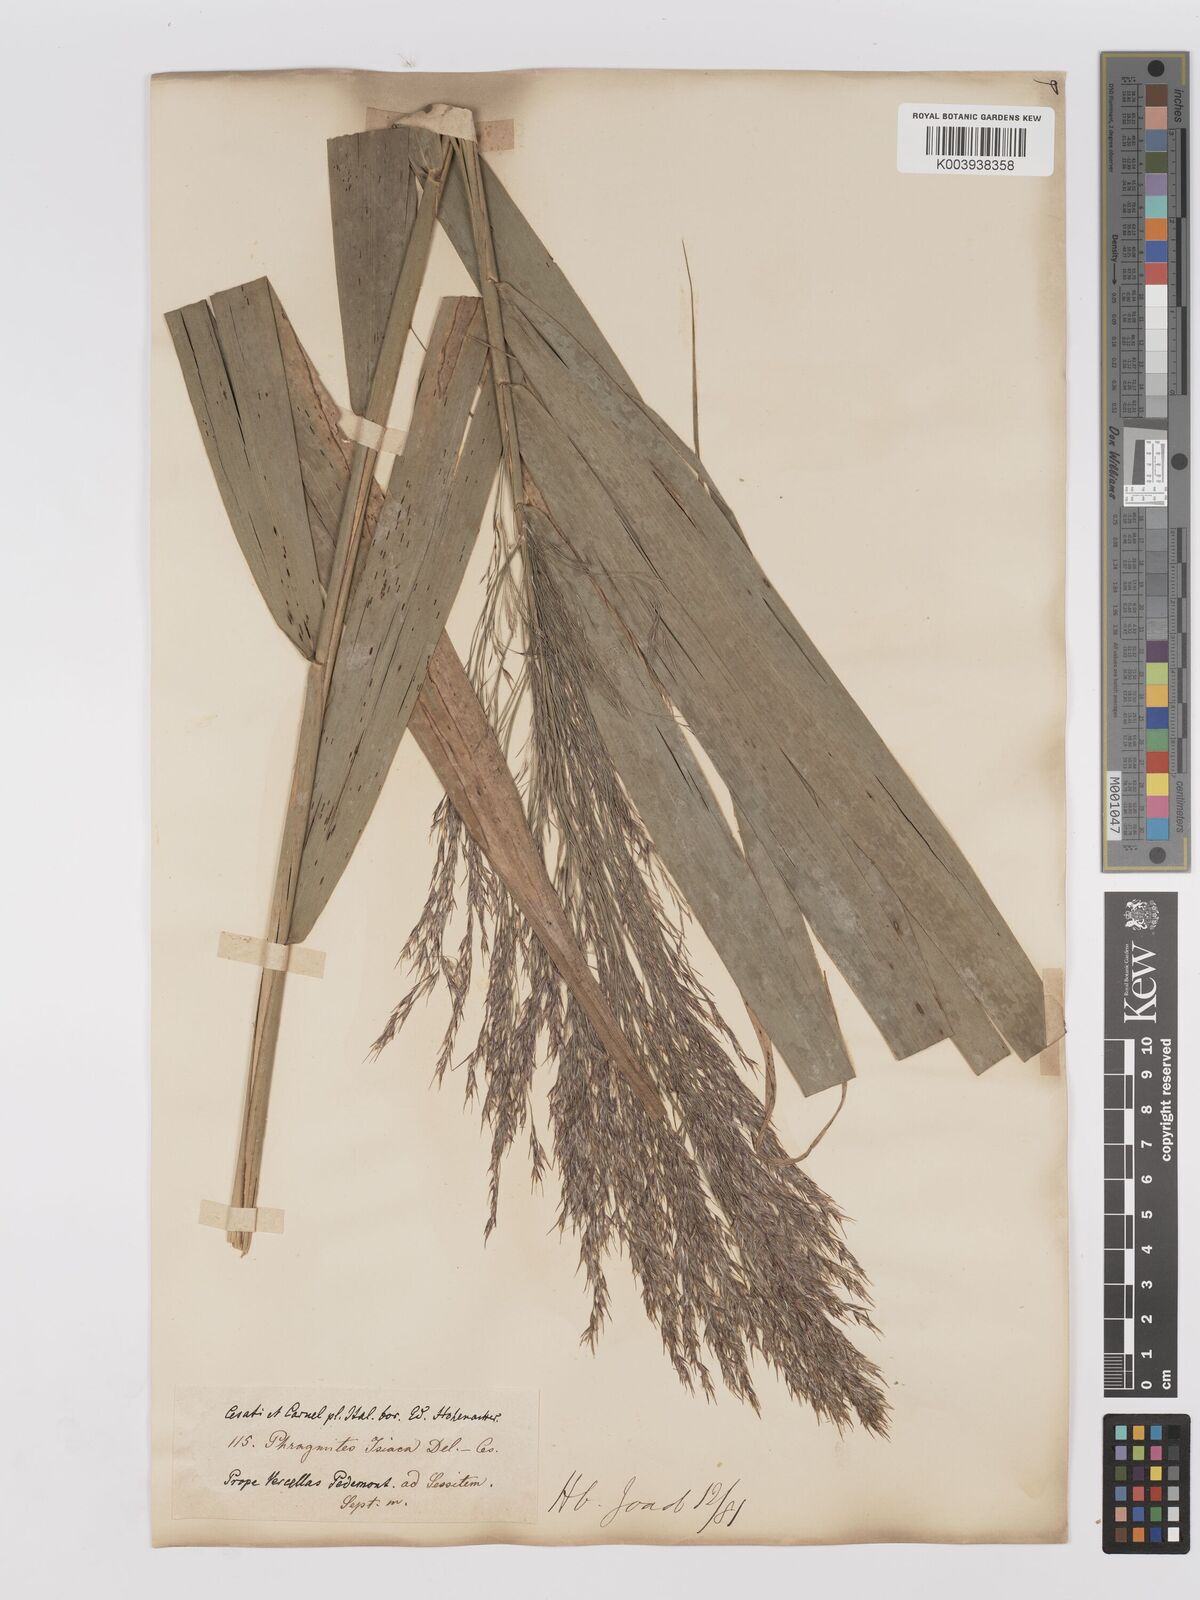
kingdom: Plantae
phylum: Tracheophyta
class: Liliopsida
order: Poales
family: Poaceae
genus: Phragmites
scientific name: Phragmites australis
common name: Common reed
